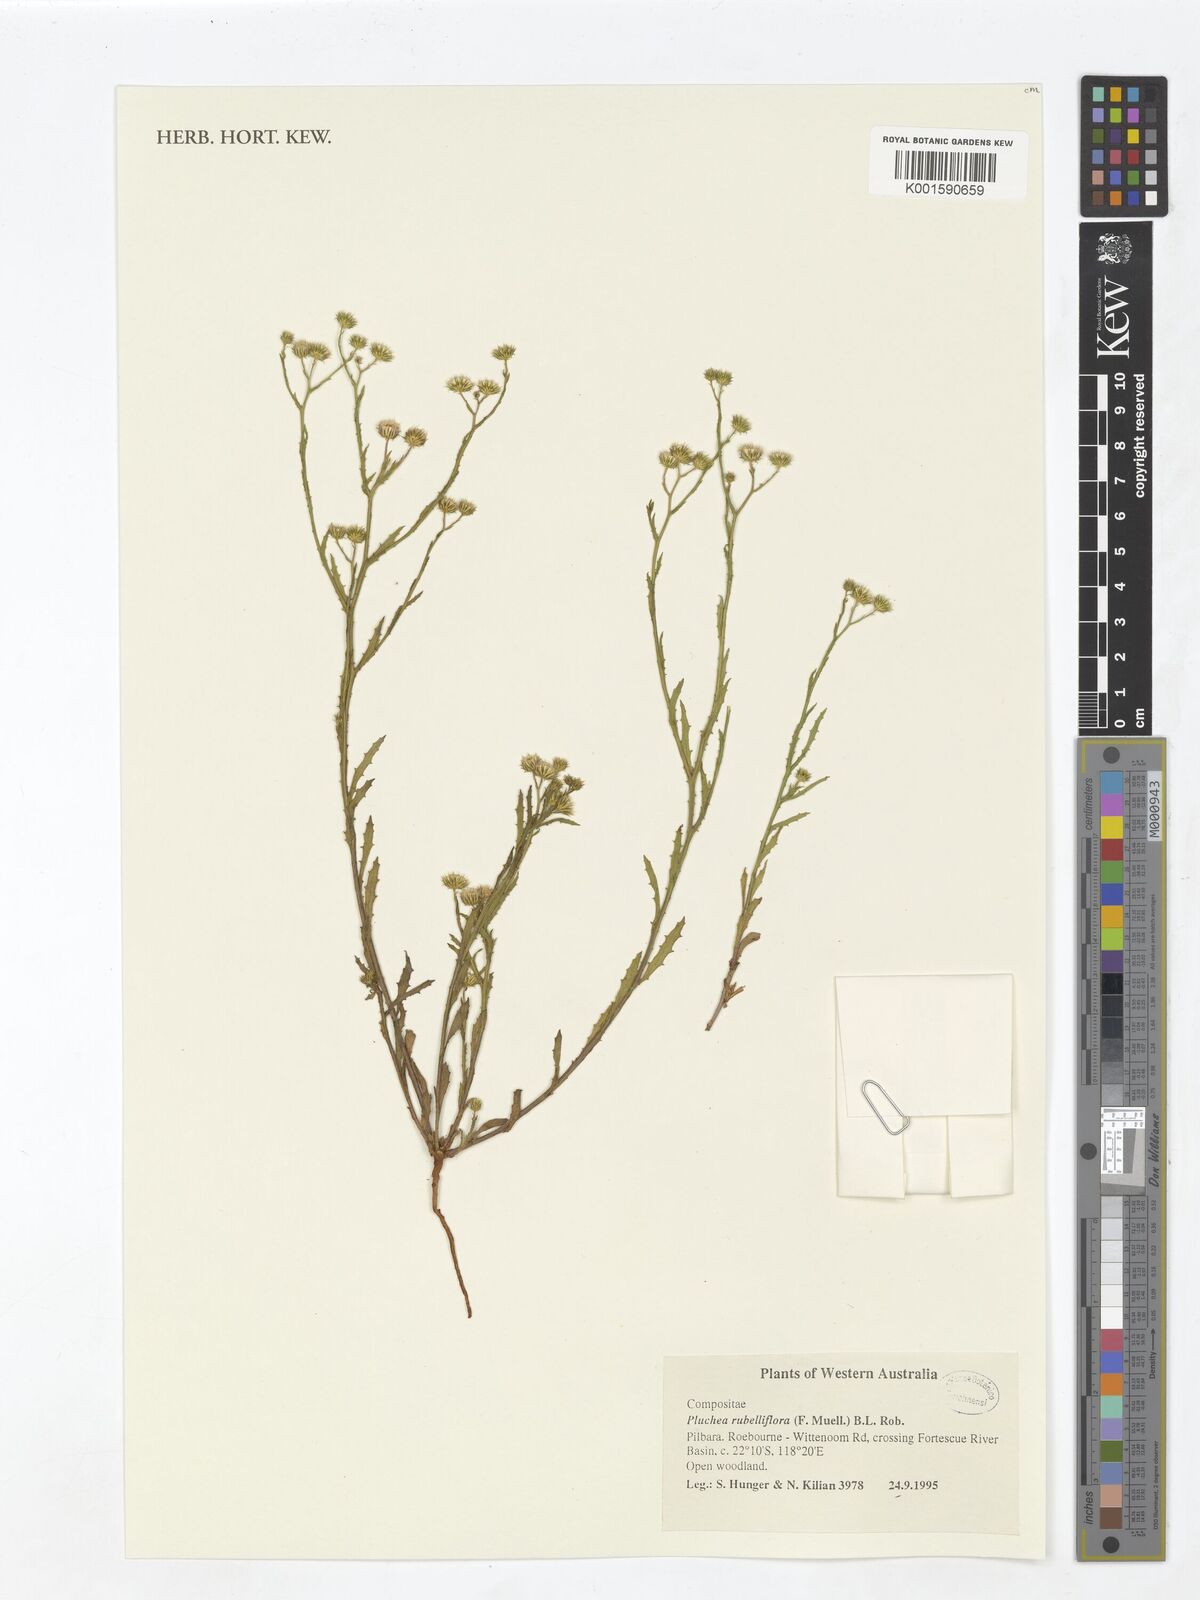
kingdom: Plantae
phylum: Tracheophyta
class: Magnoliopsida
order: Asterales
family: Asteraceae
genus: Pluchea
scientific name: Pluchea rubelliflora
